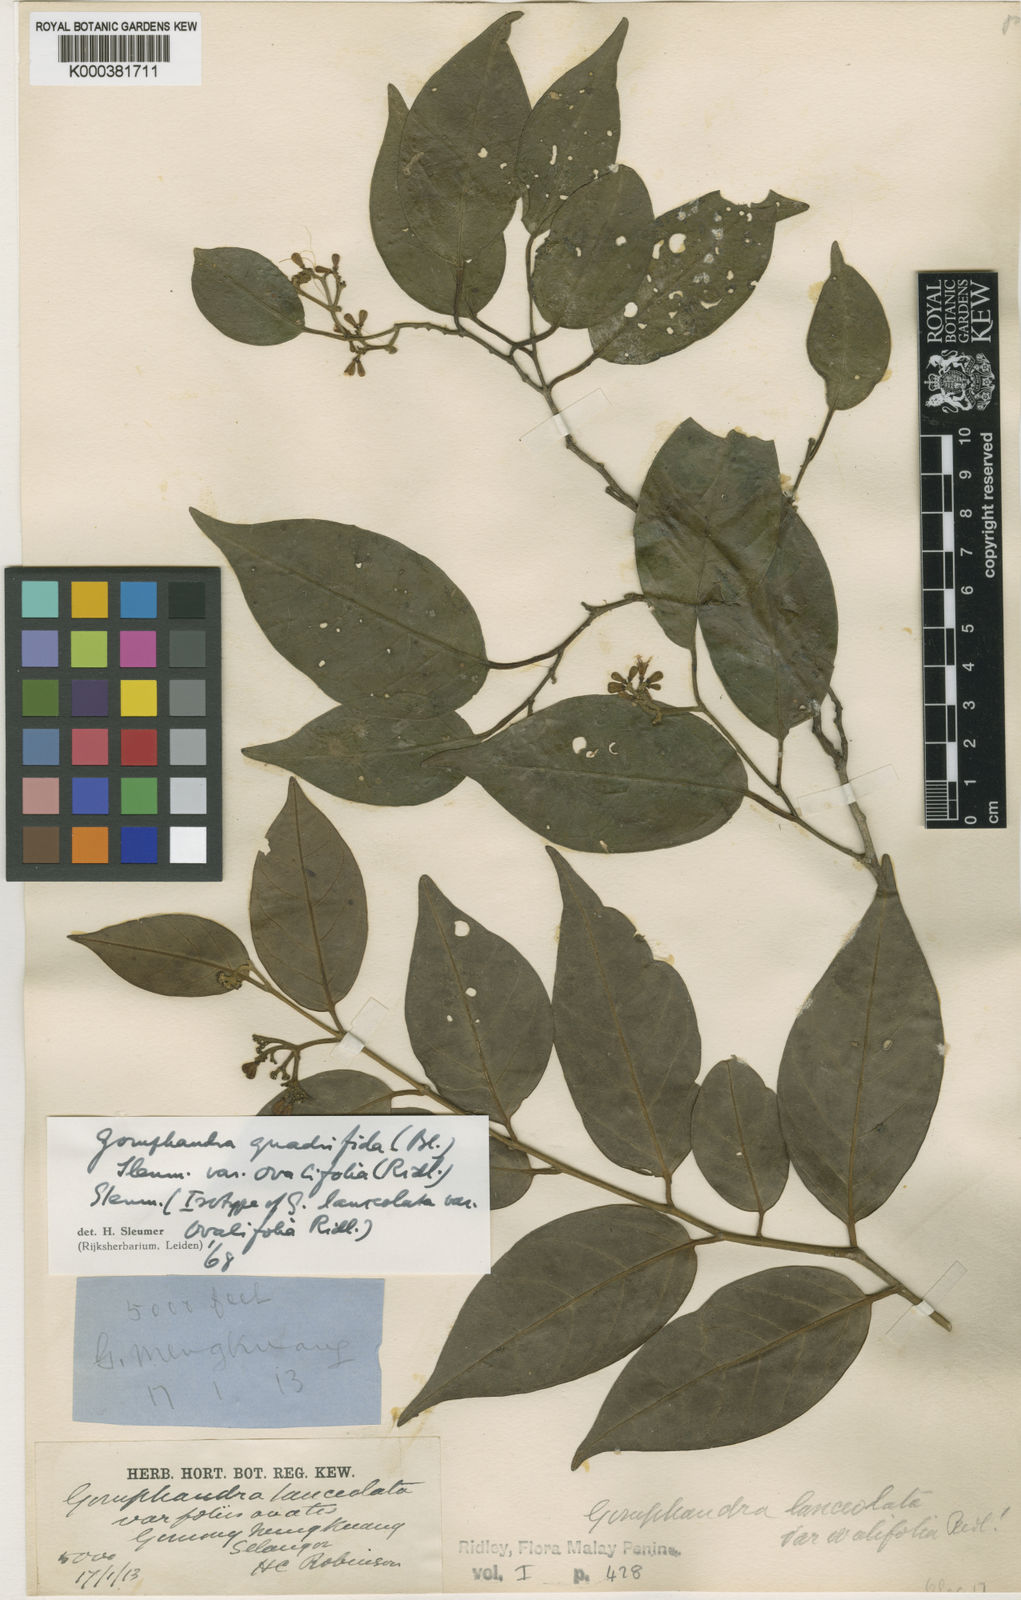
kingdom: Plantae
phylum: Tracheophyta
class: Magnoliopsida
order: Cardiopteridales
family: Stemonuraceae
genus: Gomphandra
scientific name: Gomphandra quadrifida
